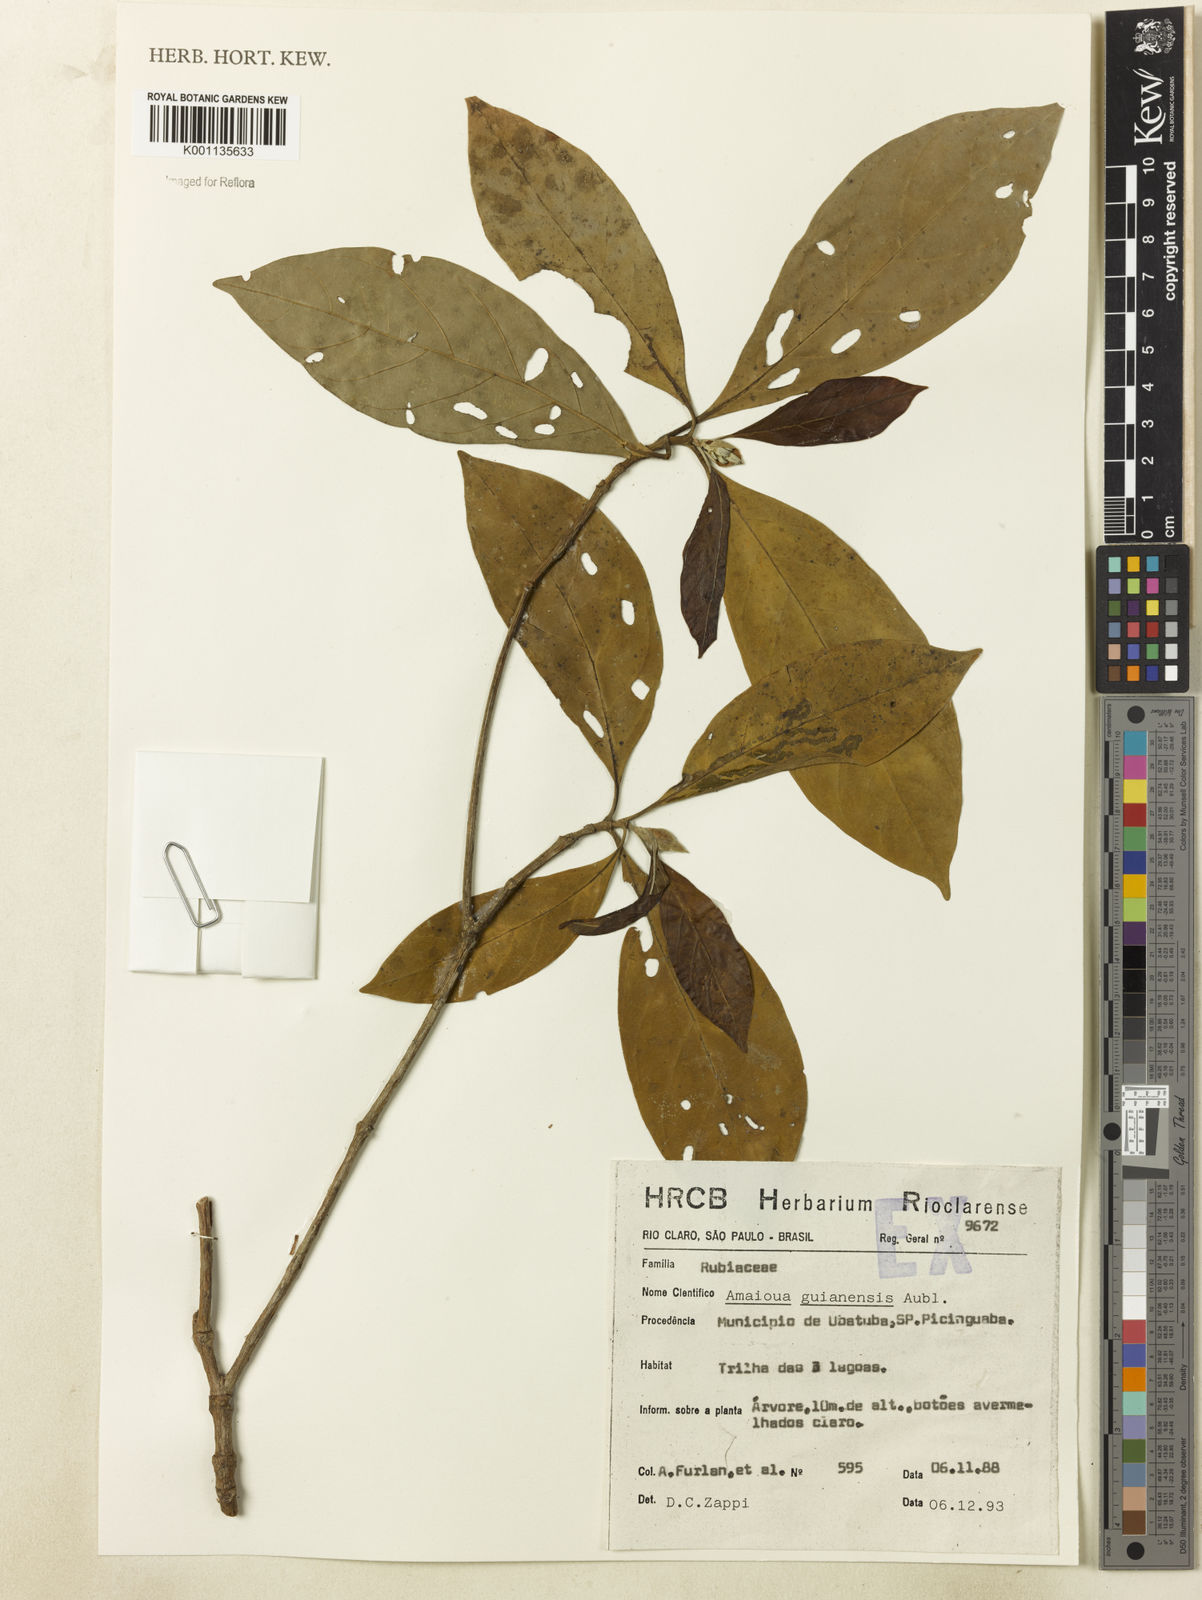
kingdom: Plantae
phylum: Tracheophyta
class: Magnoliopsida
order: Gentianales
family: Rubiaceae
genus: Amaioua
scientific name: Amaioua intermedia
